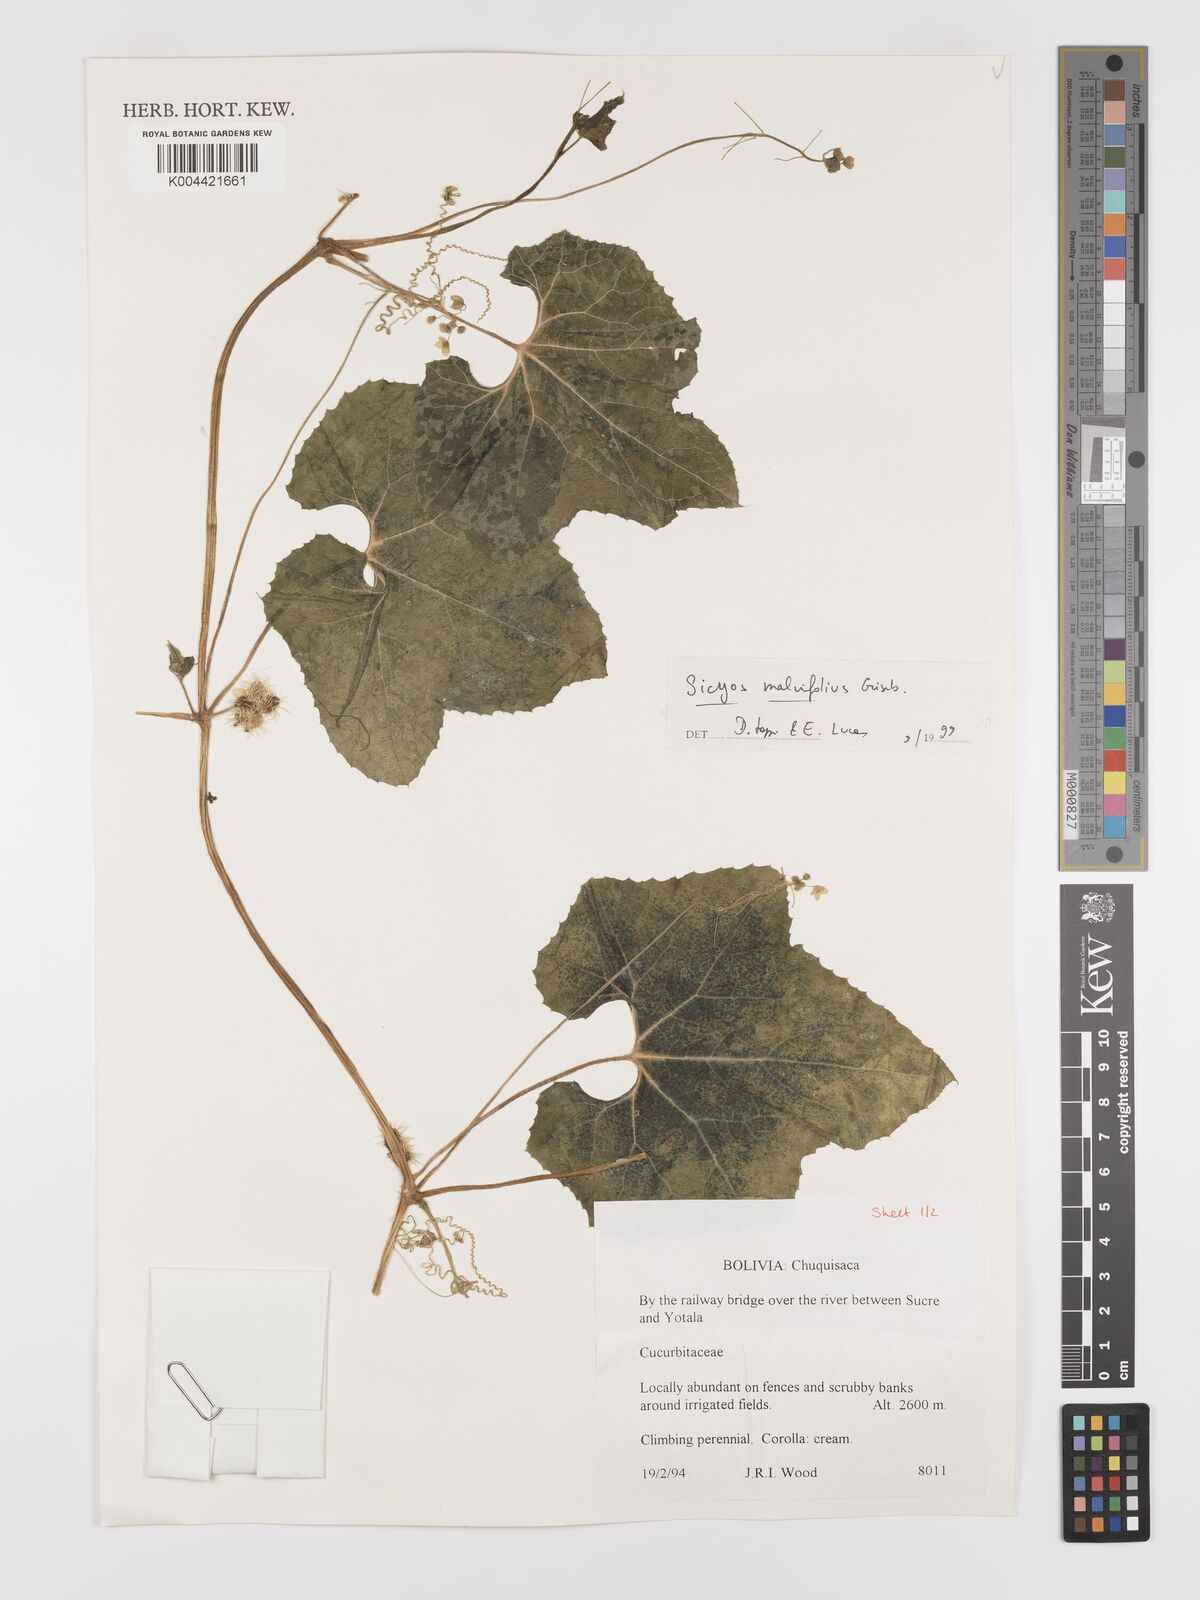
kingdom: Plantae
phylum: Tracheophyta
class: Magnoliopsida
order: Cucurbitales
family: Cucurbitaceae
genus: Sicyos
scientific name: Sicyos malvifolius
